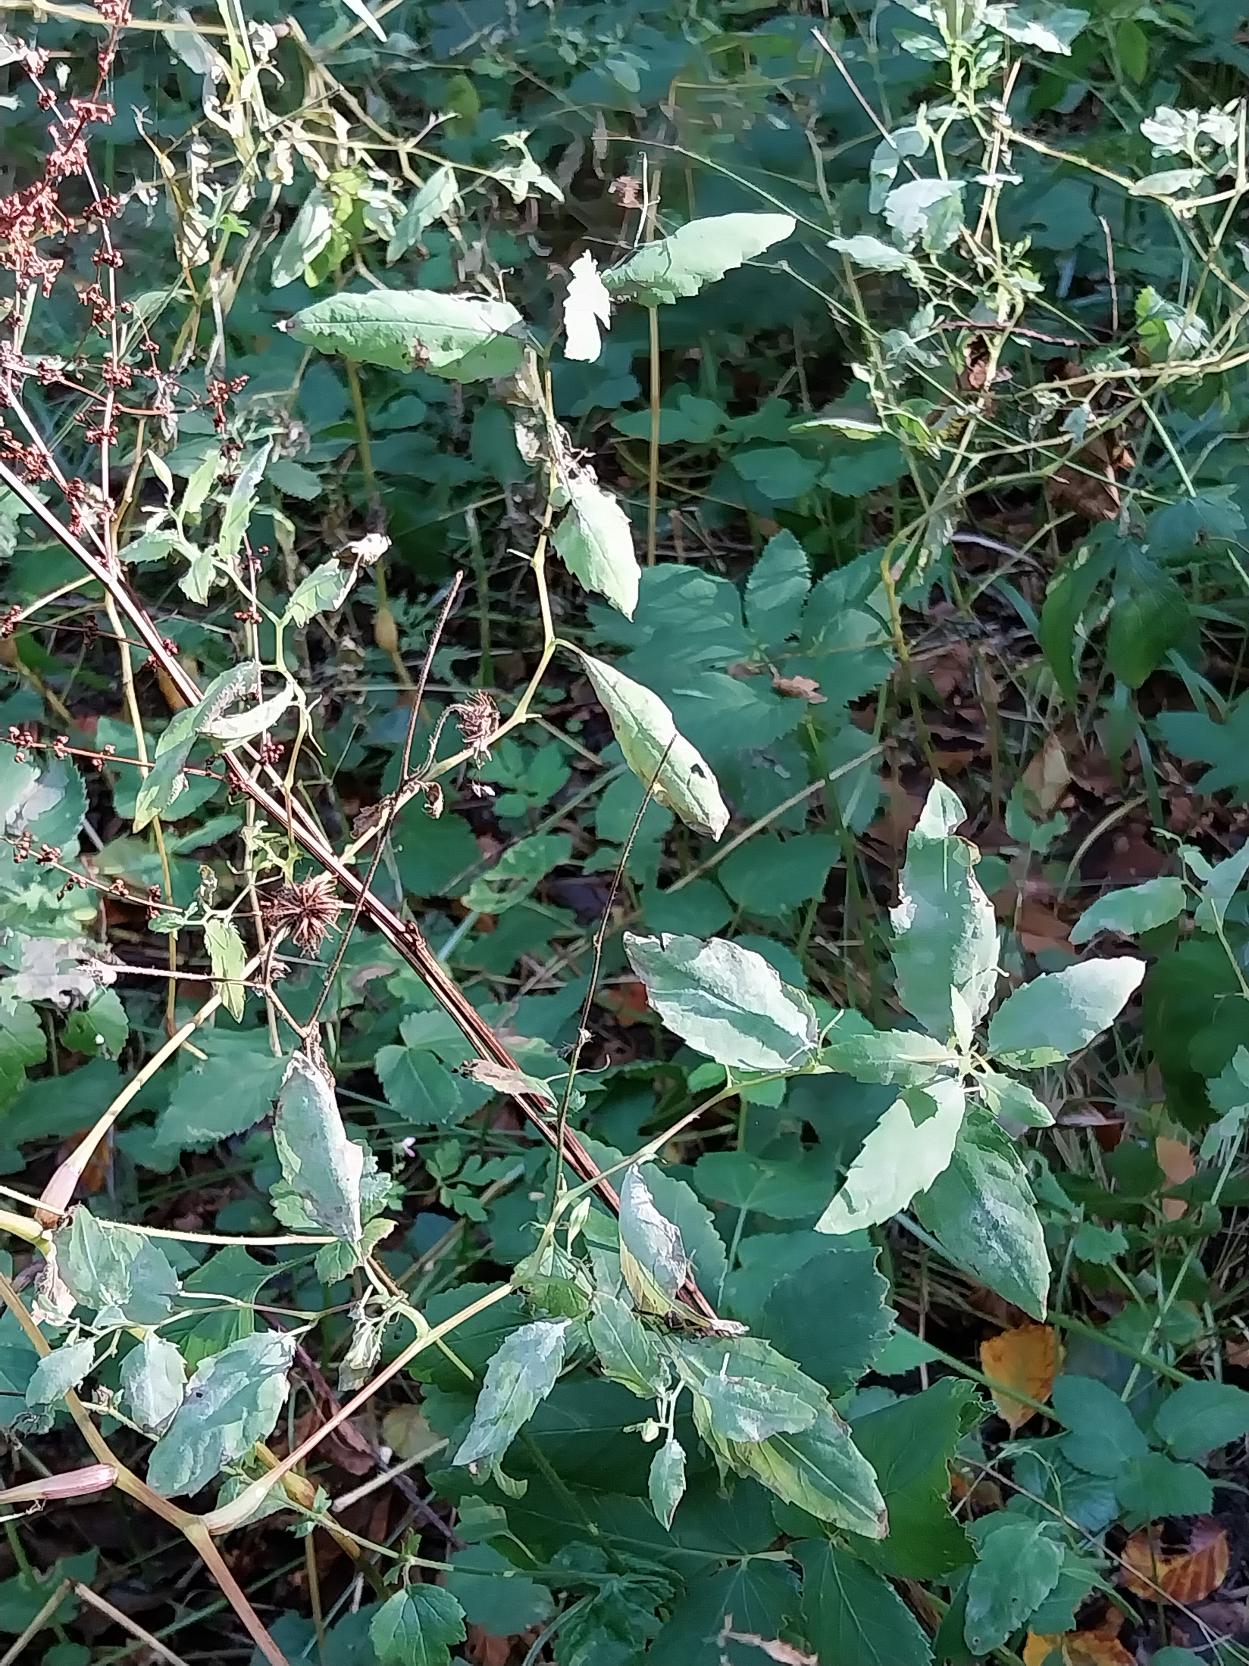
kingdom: Plantae
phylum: Tracheophyta
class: Magnoliopsida
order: Ericales
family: Balsaminaceae
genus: Impatiens
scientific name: Impatiens noli-tangere
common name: Spring-balsamin
